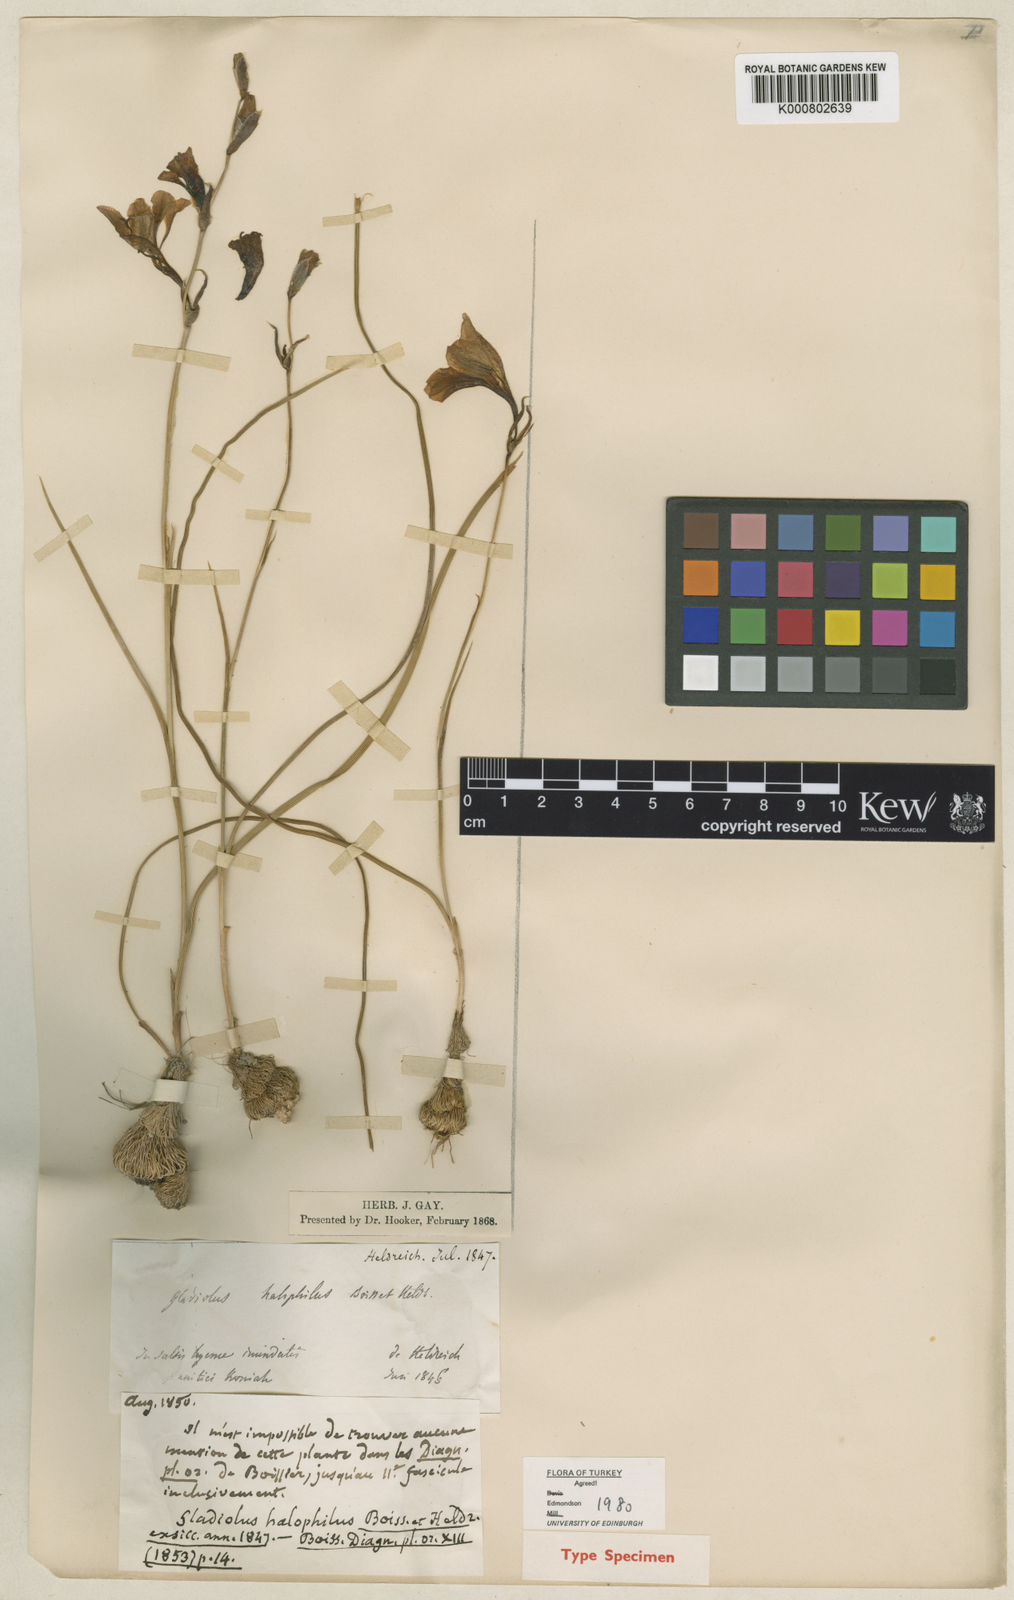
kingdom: Plantae
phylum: Tracheophyta
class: Liliopsida
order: Asparagales
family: Iridaceae
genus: Gladiolus
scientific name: Gladiolus halophilus
